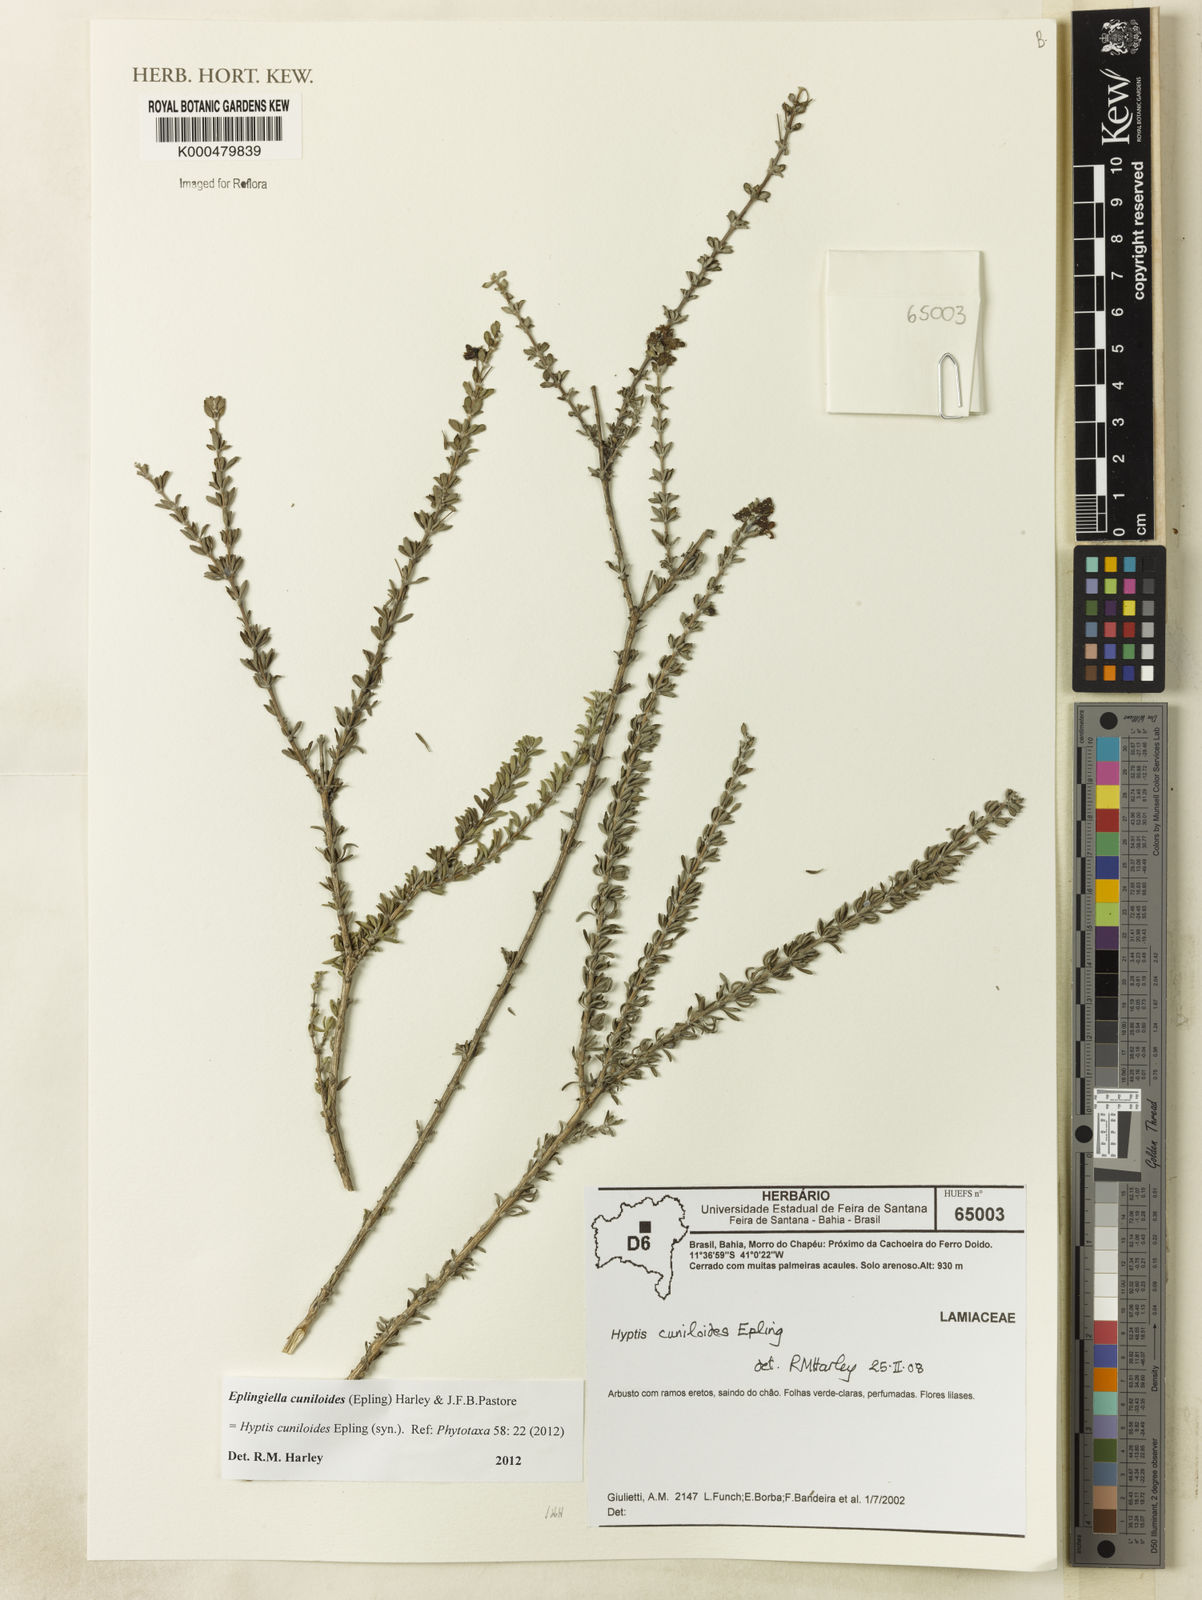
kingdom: Plantae
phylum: Tracheophyta
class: Magnoliopsida
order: Lamiales
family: Lamiaceae
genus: Eplingiella
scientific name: Eplingiella cuniloides
